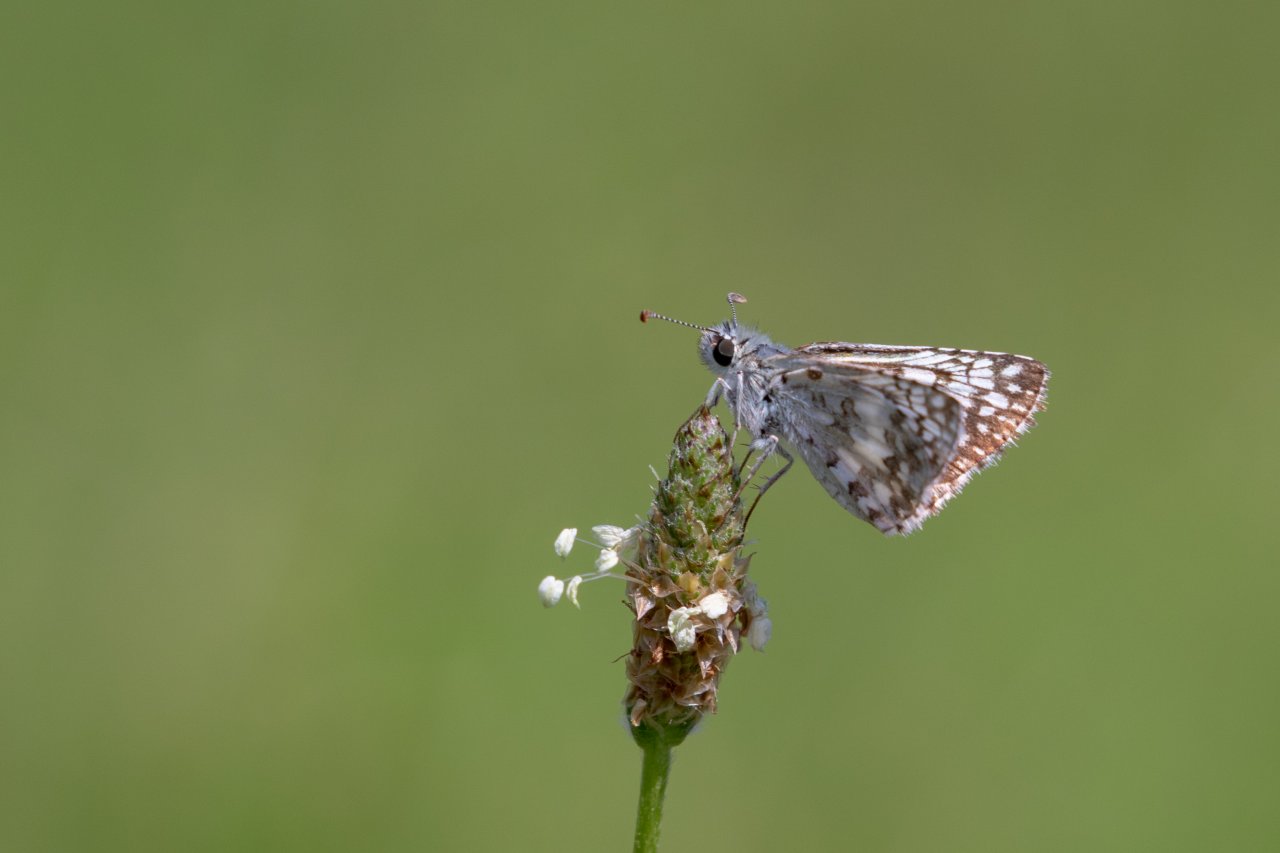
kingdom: Animalia
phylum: Arthropoda
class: Insecta
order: Lepidoptera
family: Hesperiidae
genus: Pyrgus
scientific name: Pyrgus
